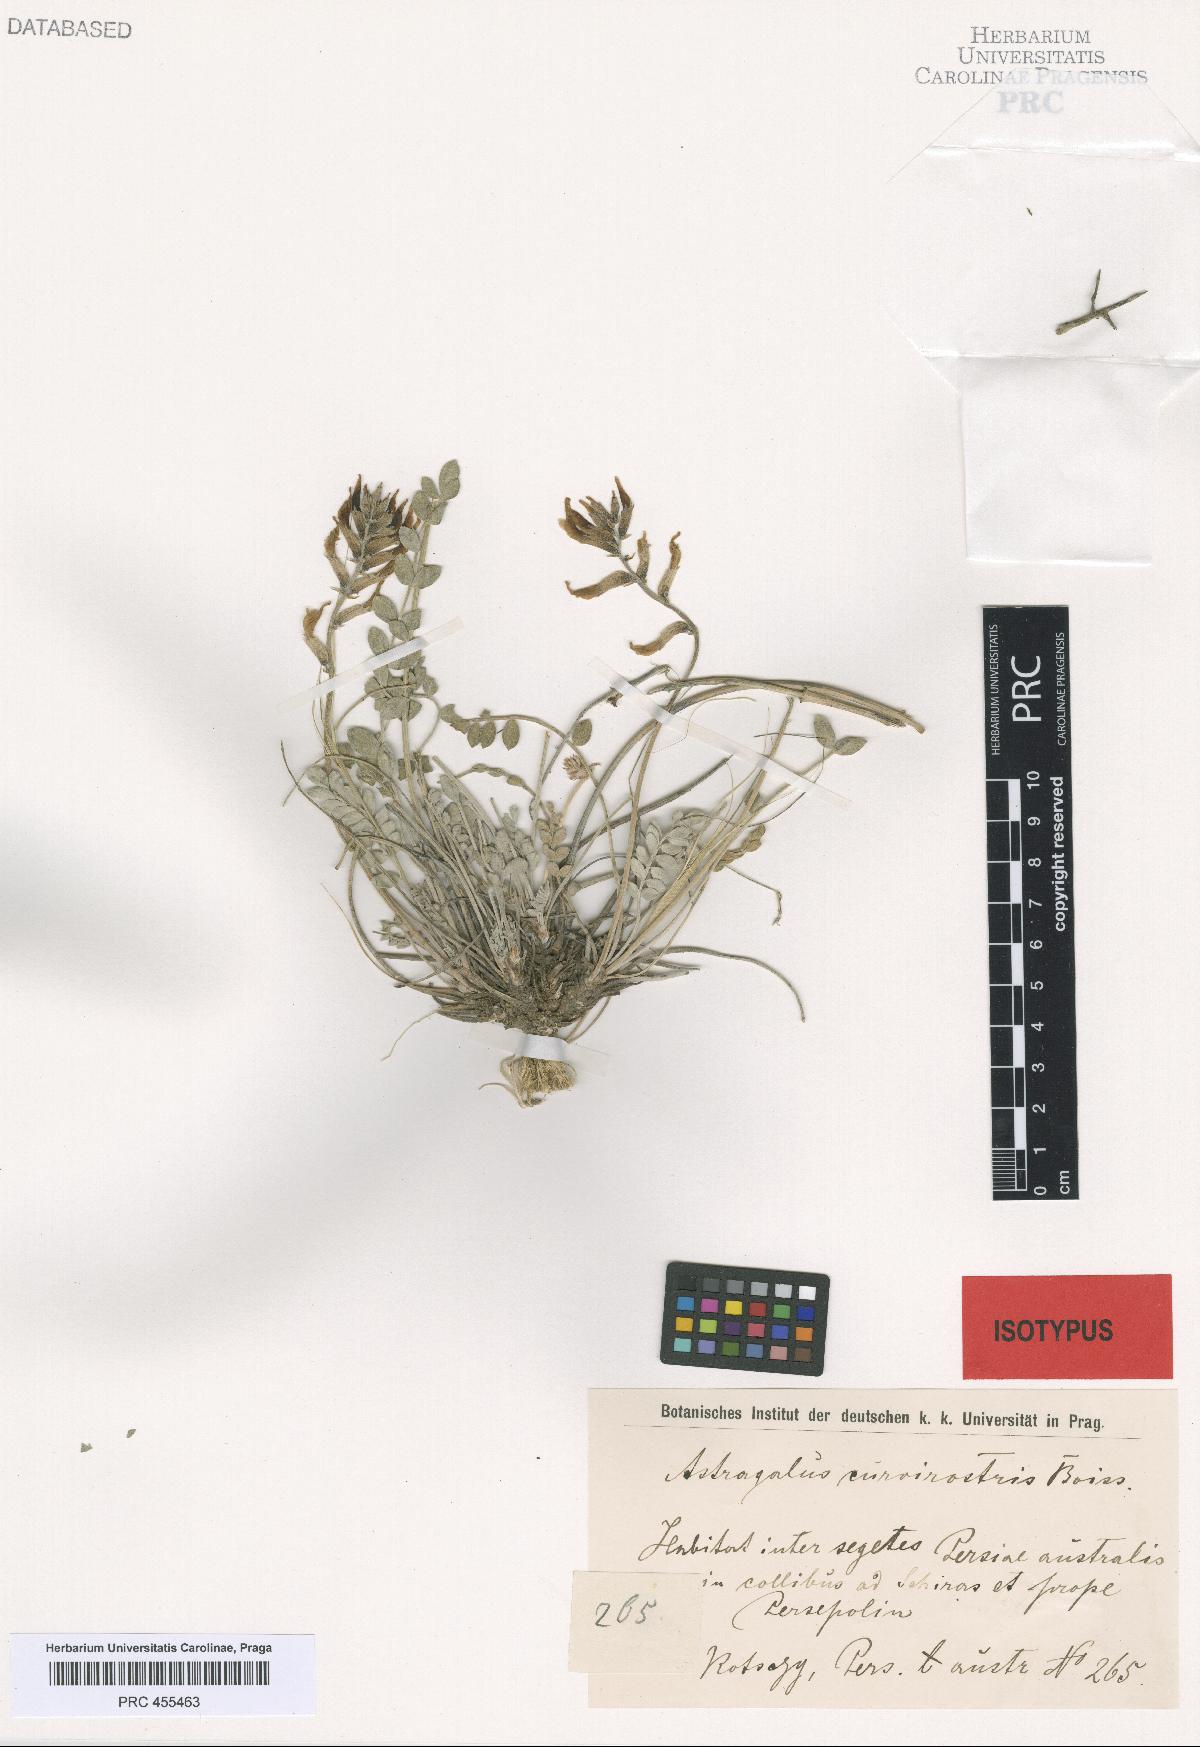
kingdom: Plantae
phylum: Tracheophyta
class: Magnoliopsida
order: Fabales
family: Fabaceae
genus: Astragalus
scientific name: Astragalus curvirostris
